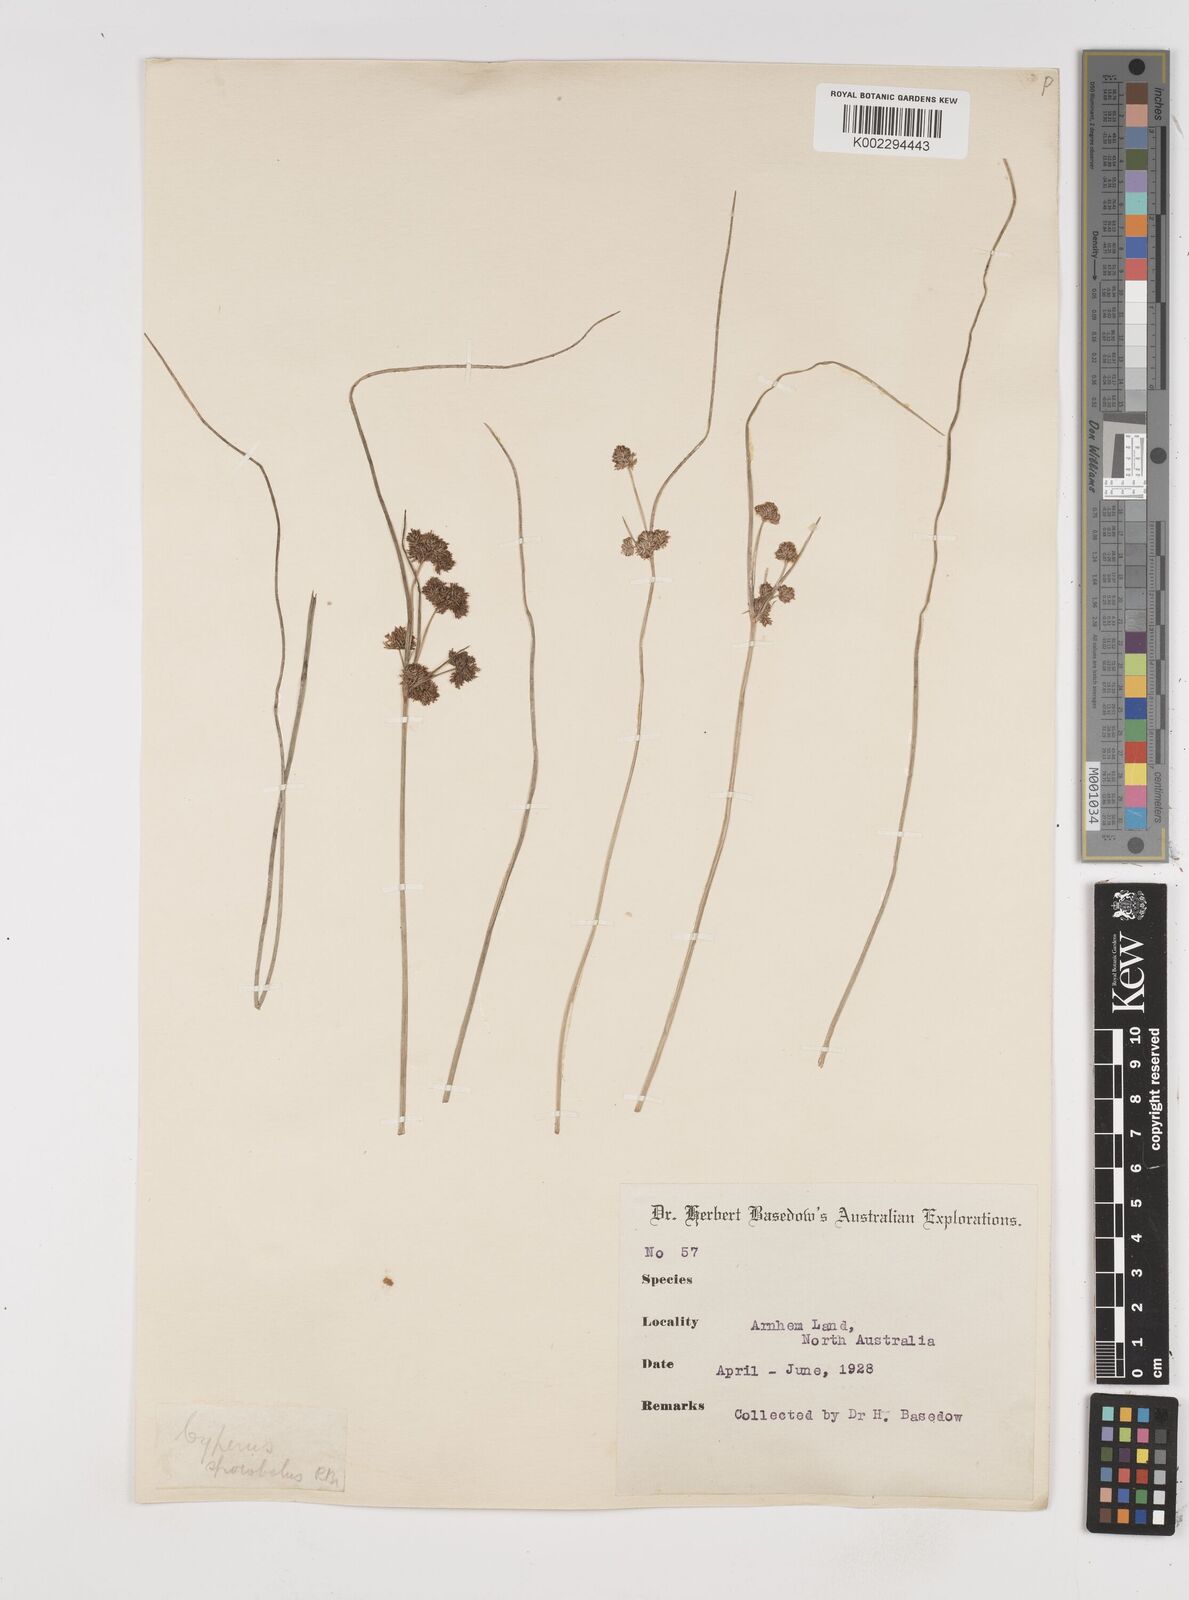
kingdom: Plantae
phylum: Tracheophyta
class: Liliopsida
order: Poales
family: Cyperaceae
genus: Cyperus
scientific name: Cyperus sporobolus
